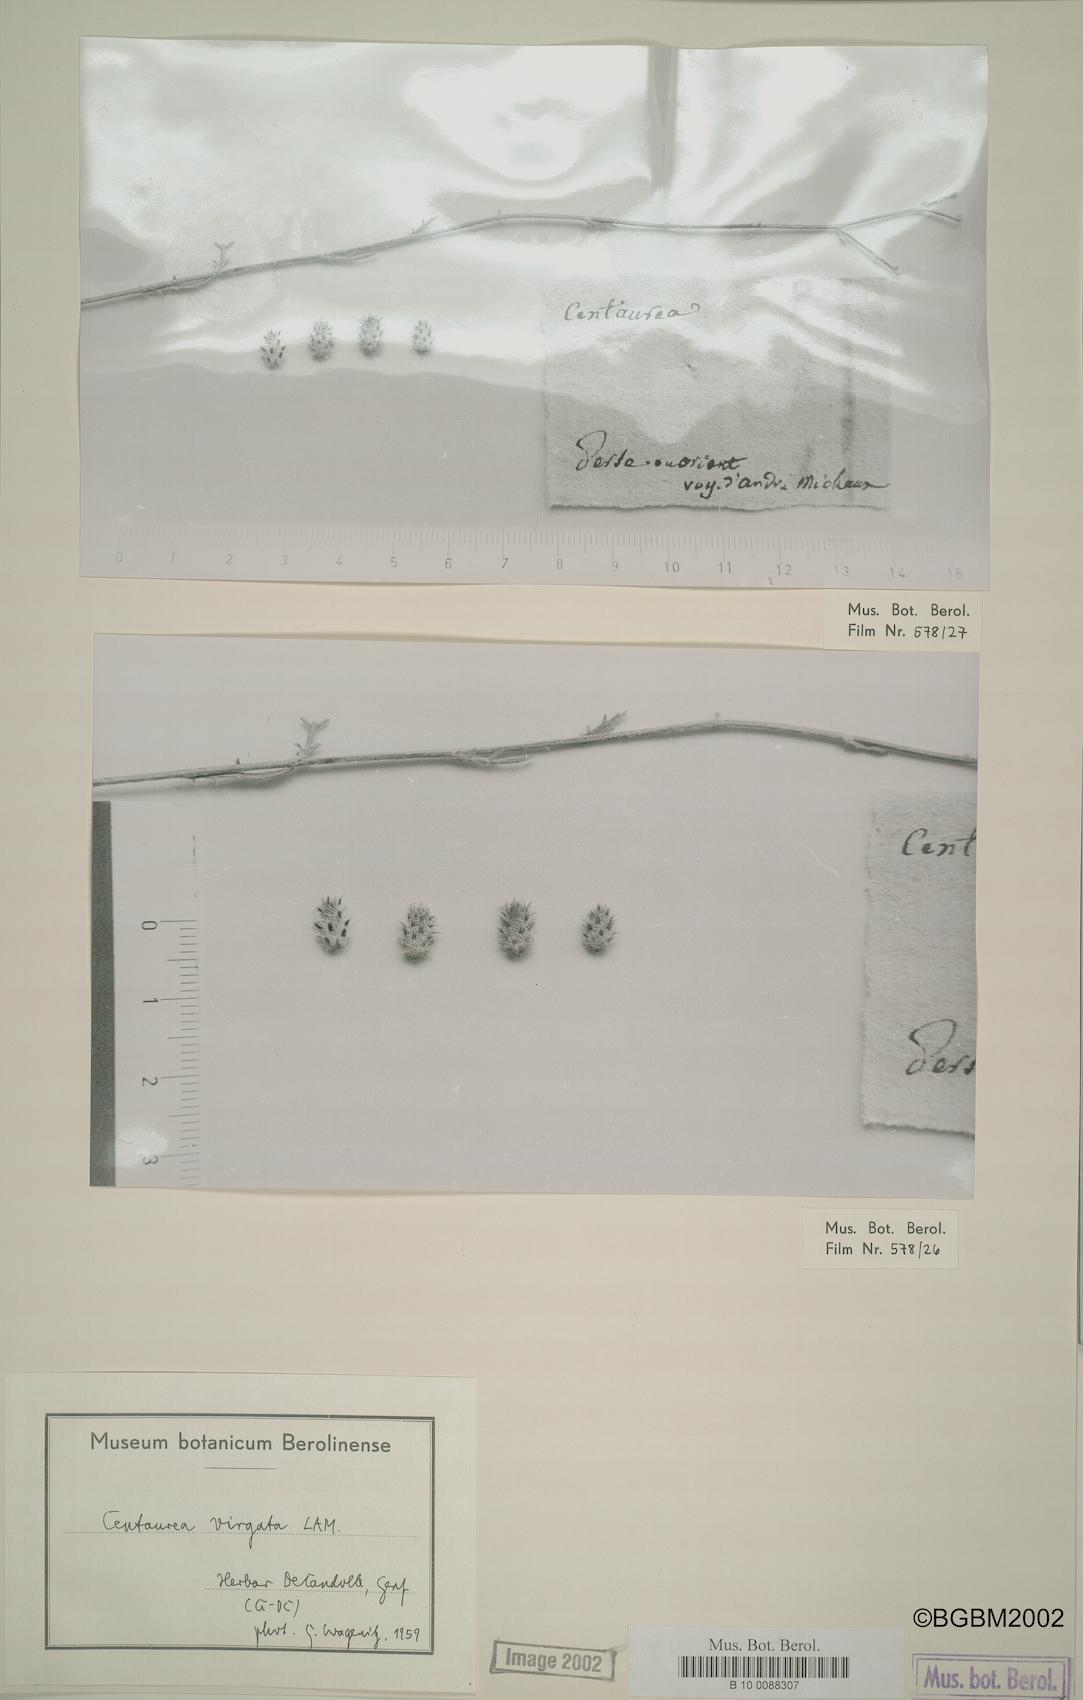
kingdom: Plantae
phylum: Tracheophyta
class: Magnoliopsida
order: Asterales
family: Asteraceae
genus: Centaurea
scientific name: Centaurea virgata
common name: Squarrose knapweed
